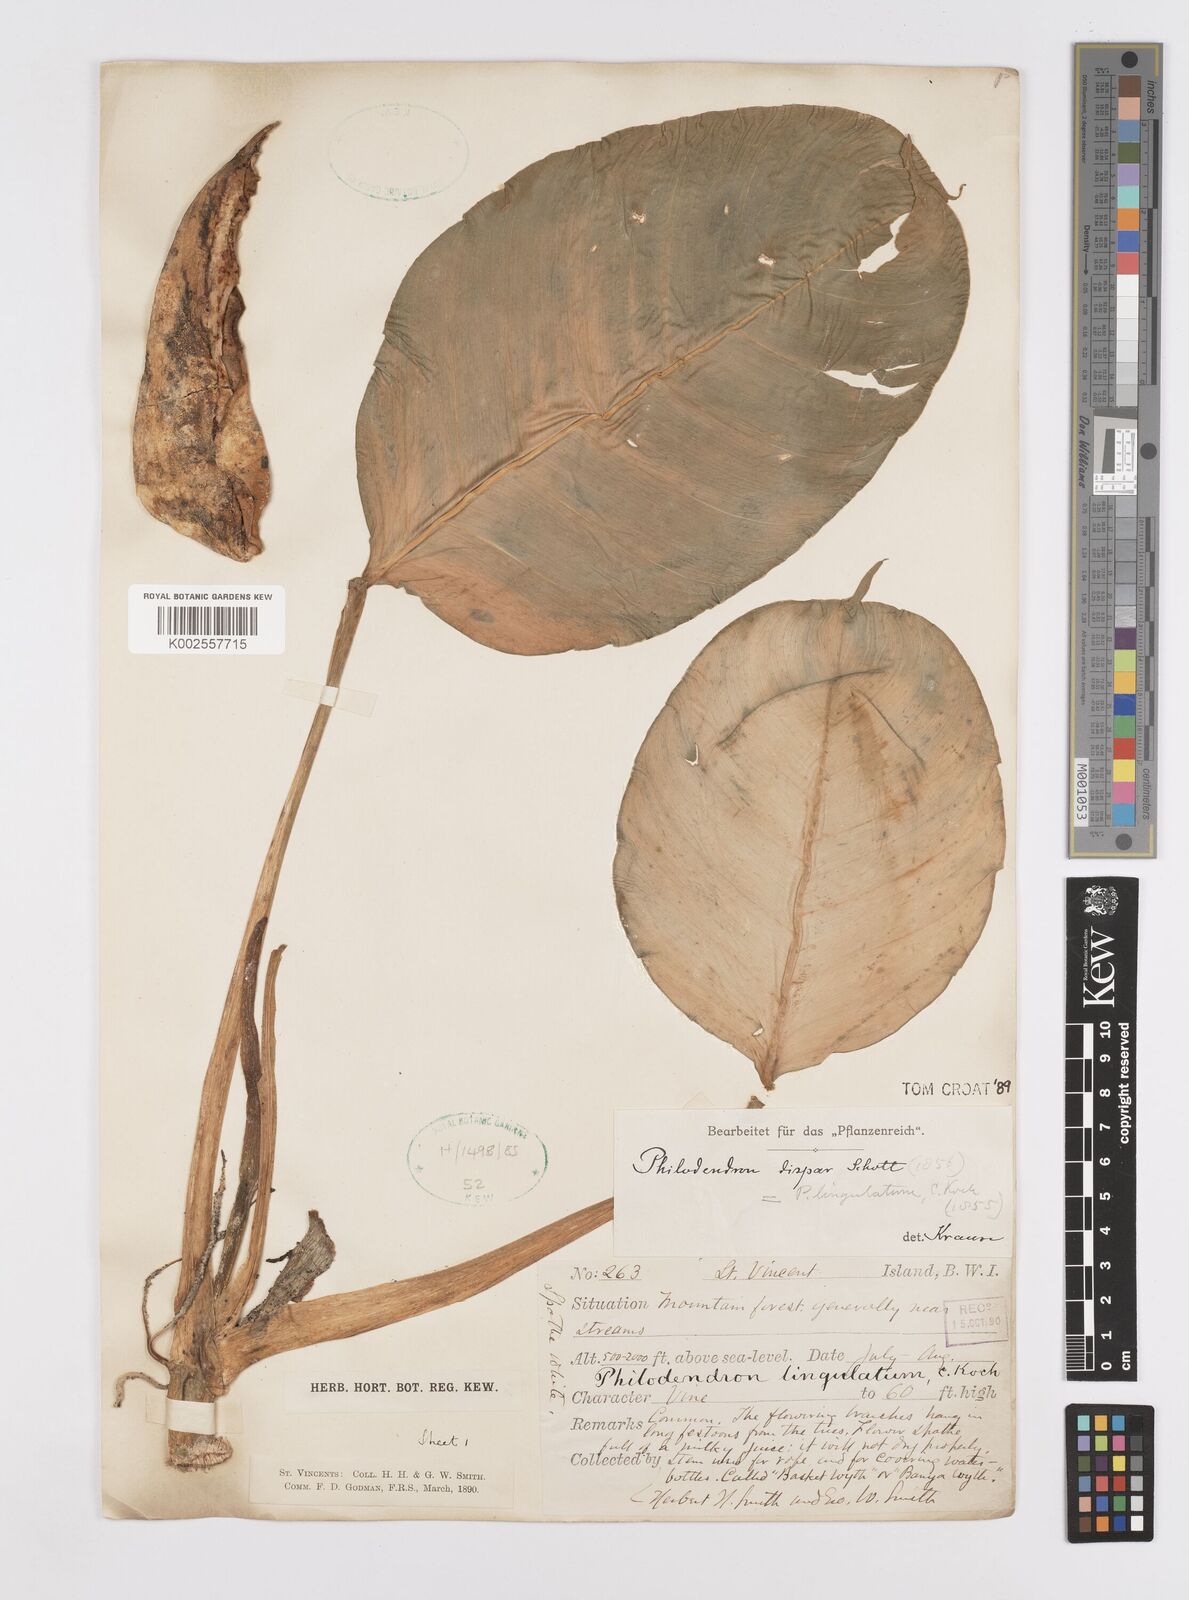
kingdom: Plantae
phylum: Tracheophyta
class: Liliopsida
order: Alismatales
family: Araceae
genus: Philodendron
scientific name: Philodendron lingulatum
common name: Treelover
